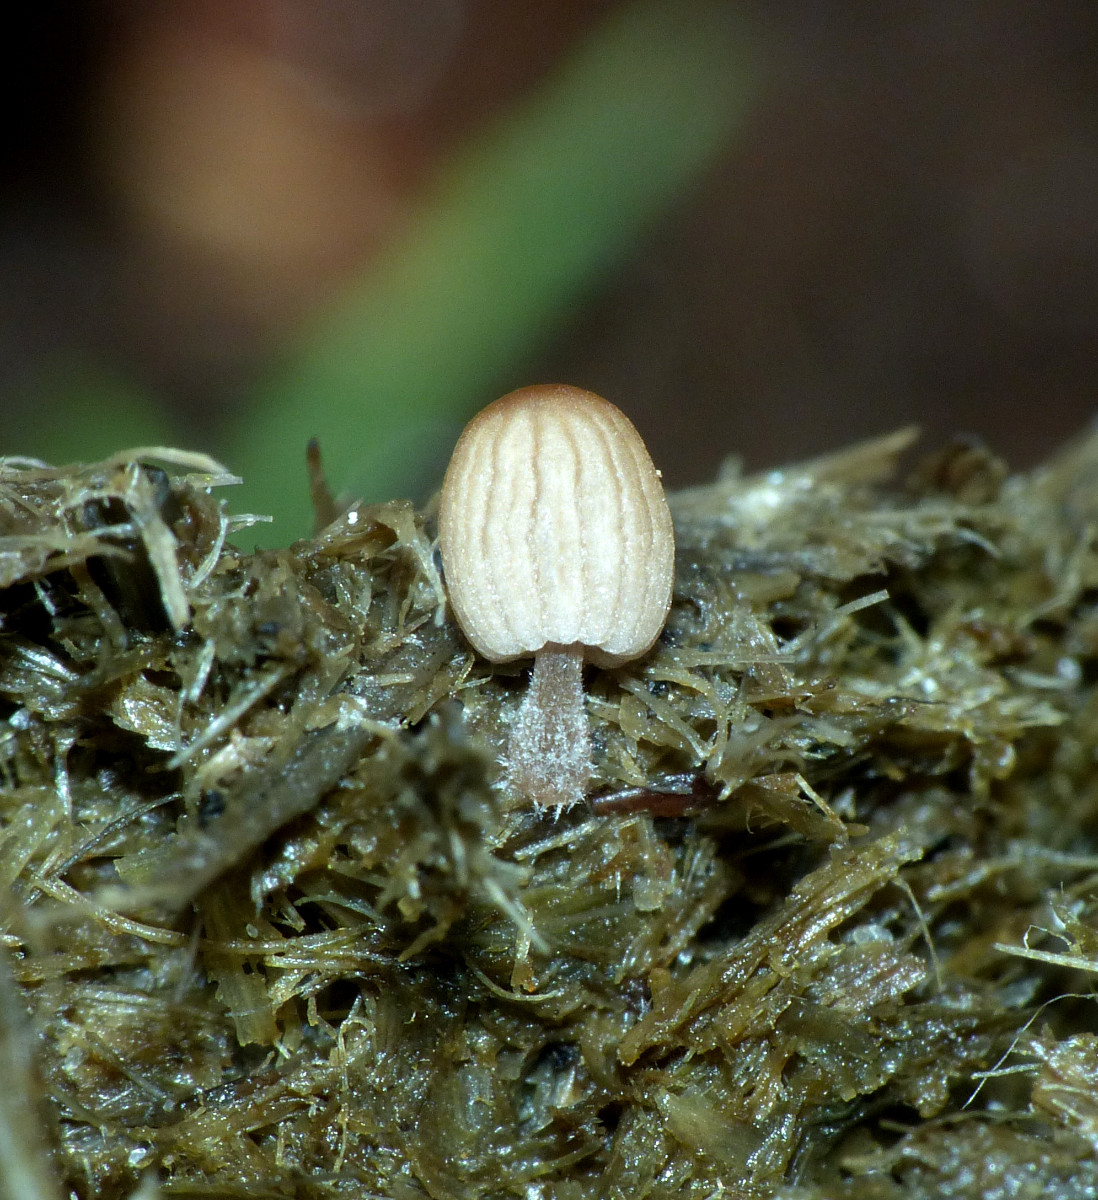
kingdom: Fungi
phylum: Basidiomycota
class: Agaricomycetes
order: Agaricales
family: Psathyrellaceae
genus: Parasola
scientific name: Parasola misera
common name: lillebitte hjulhat
